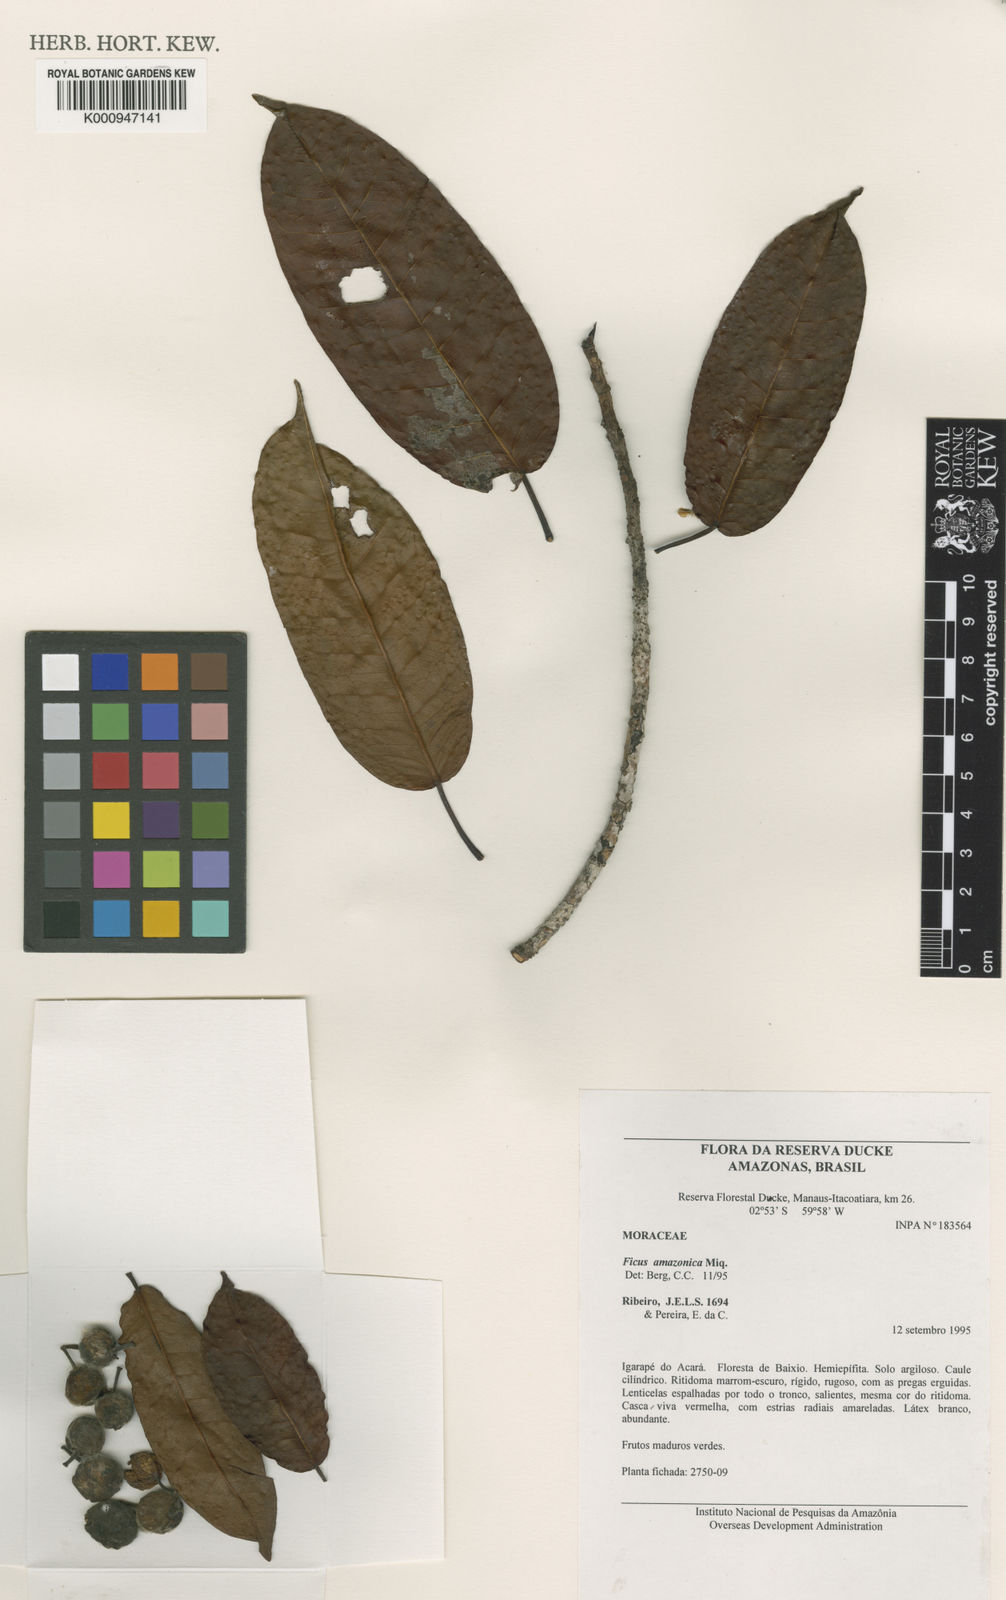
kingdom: Plantae
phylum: Tracheophyta
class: Magnoliopsida
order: Rosales
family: Moraceae
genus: Ficus
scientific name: Ficus amazonica
